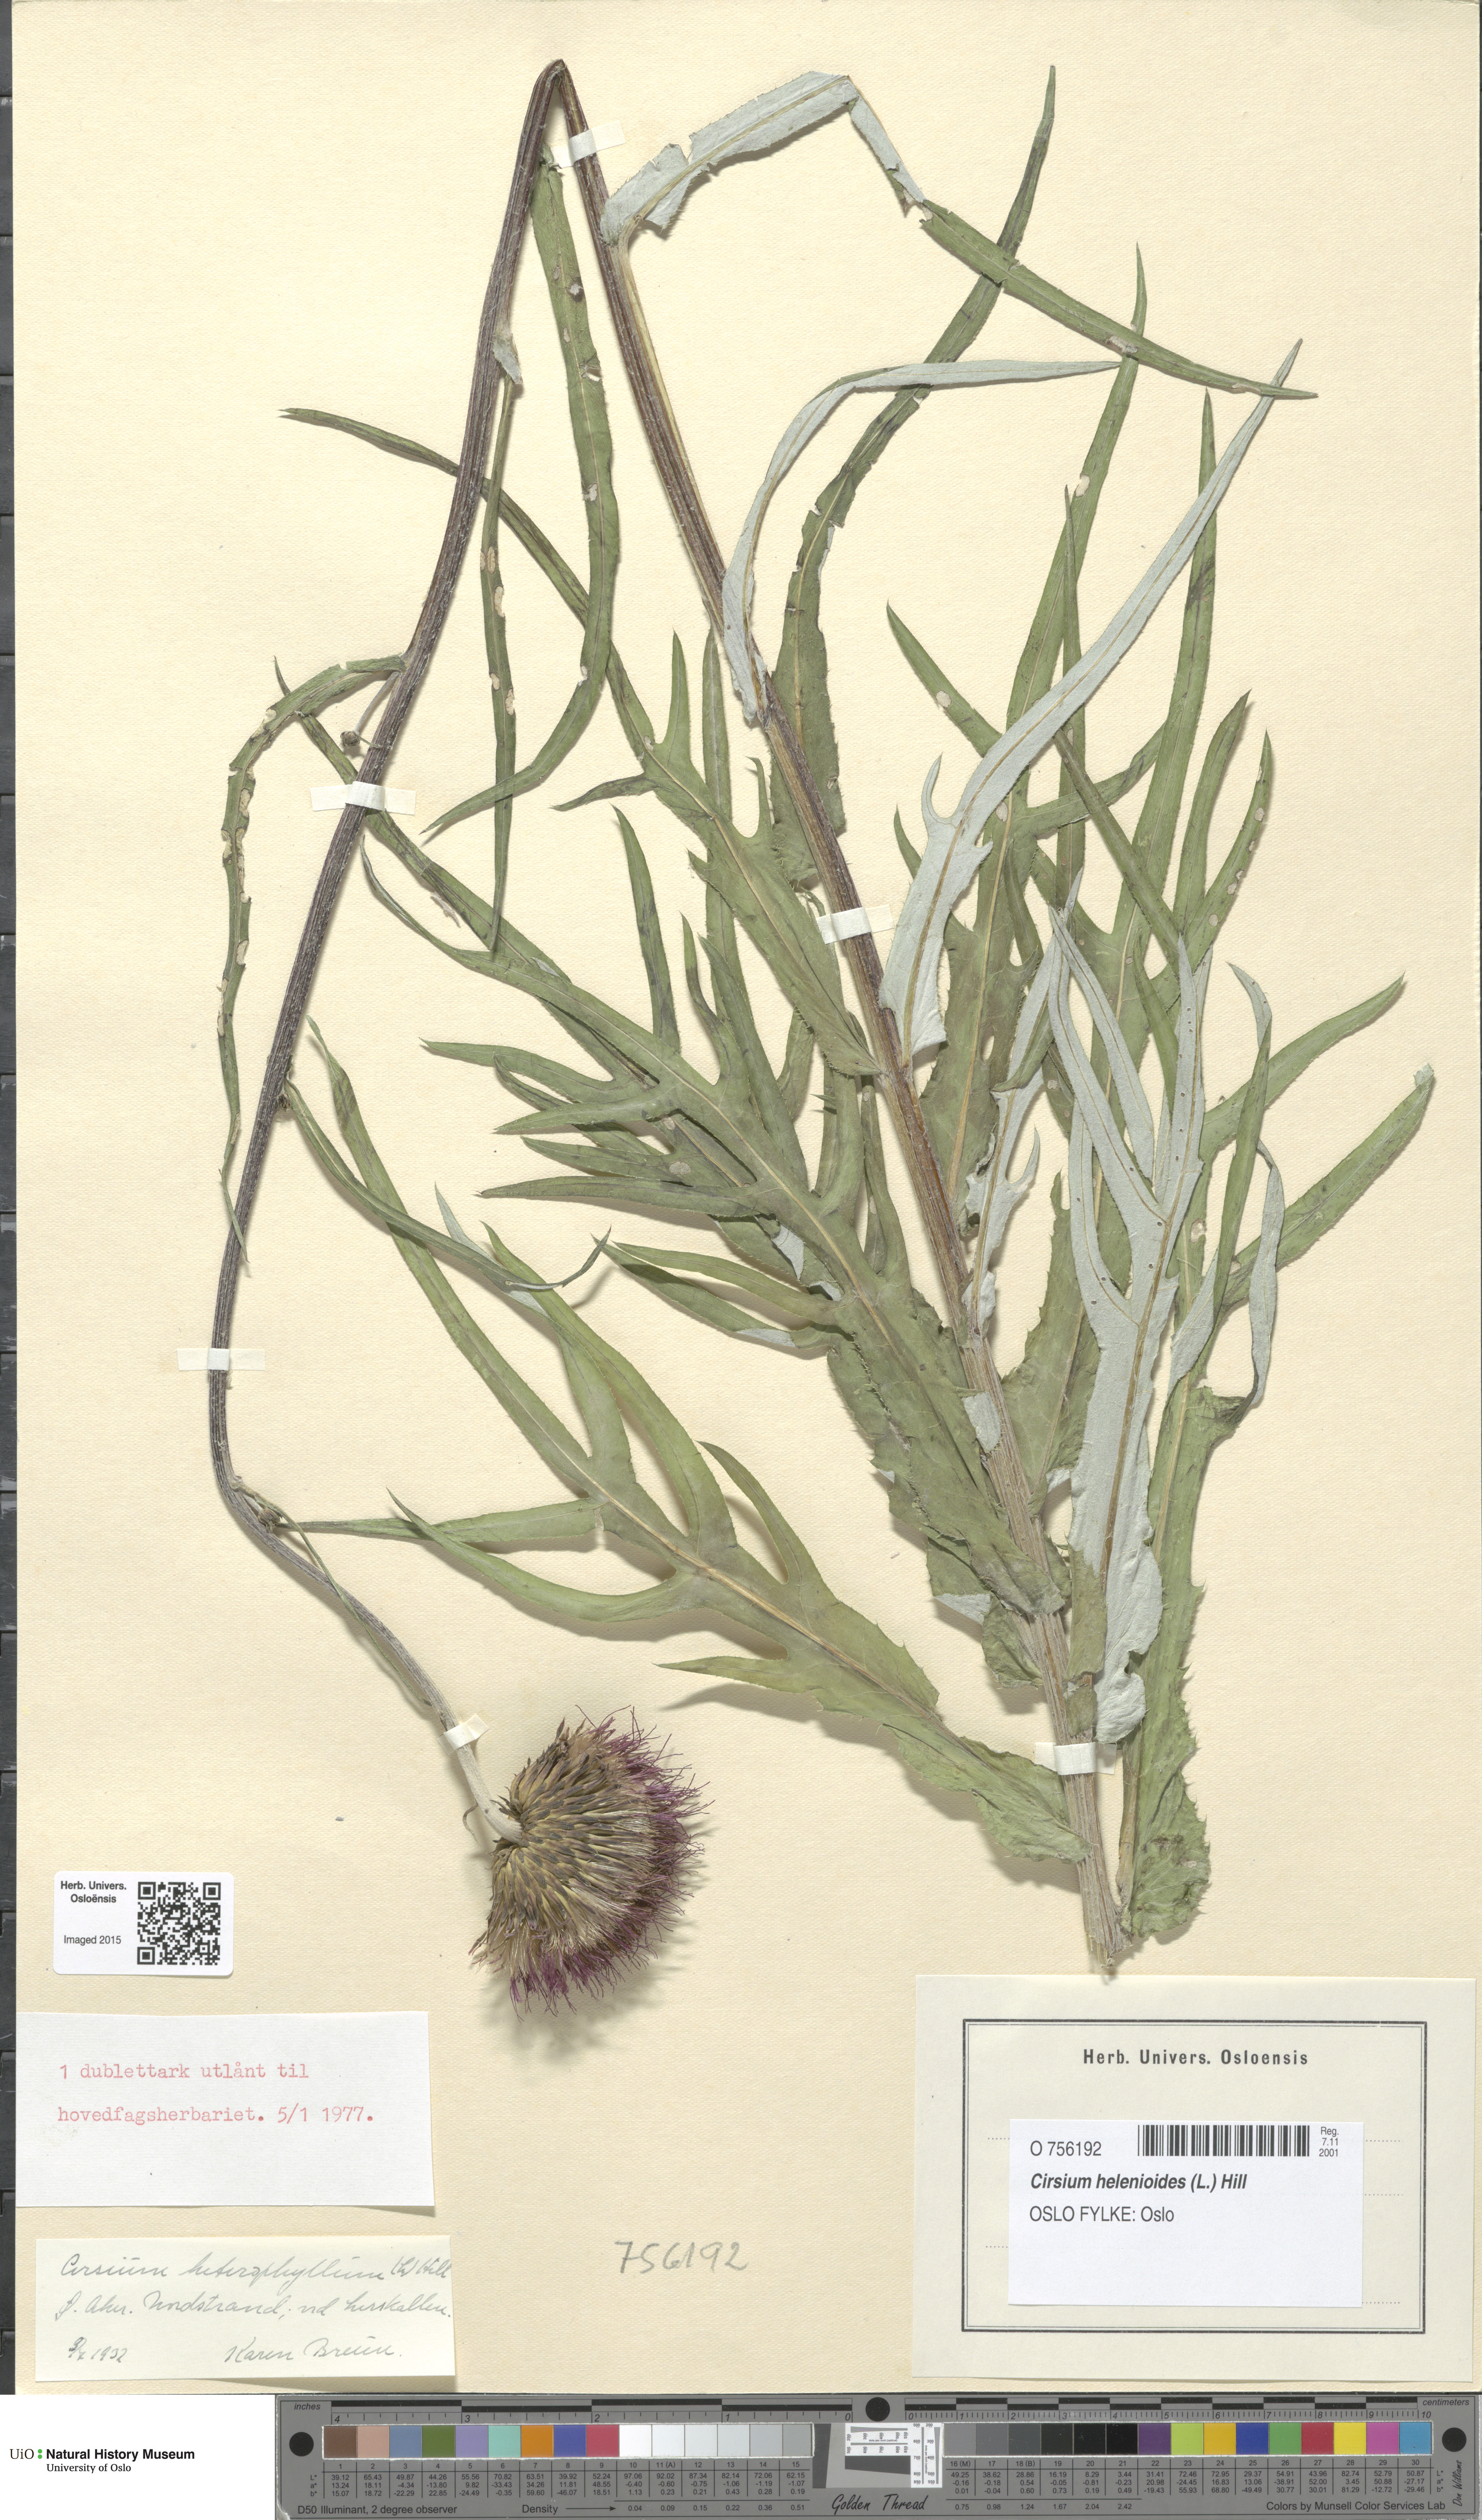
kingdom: Plantae
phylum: Tracheophyta
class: Magnoliopsida
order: Asterales
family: Asteraceae
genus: Cirsium
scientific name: Cirsium heterophyllum
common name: Melancholy thistle
